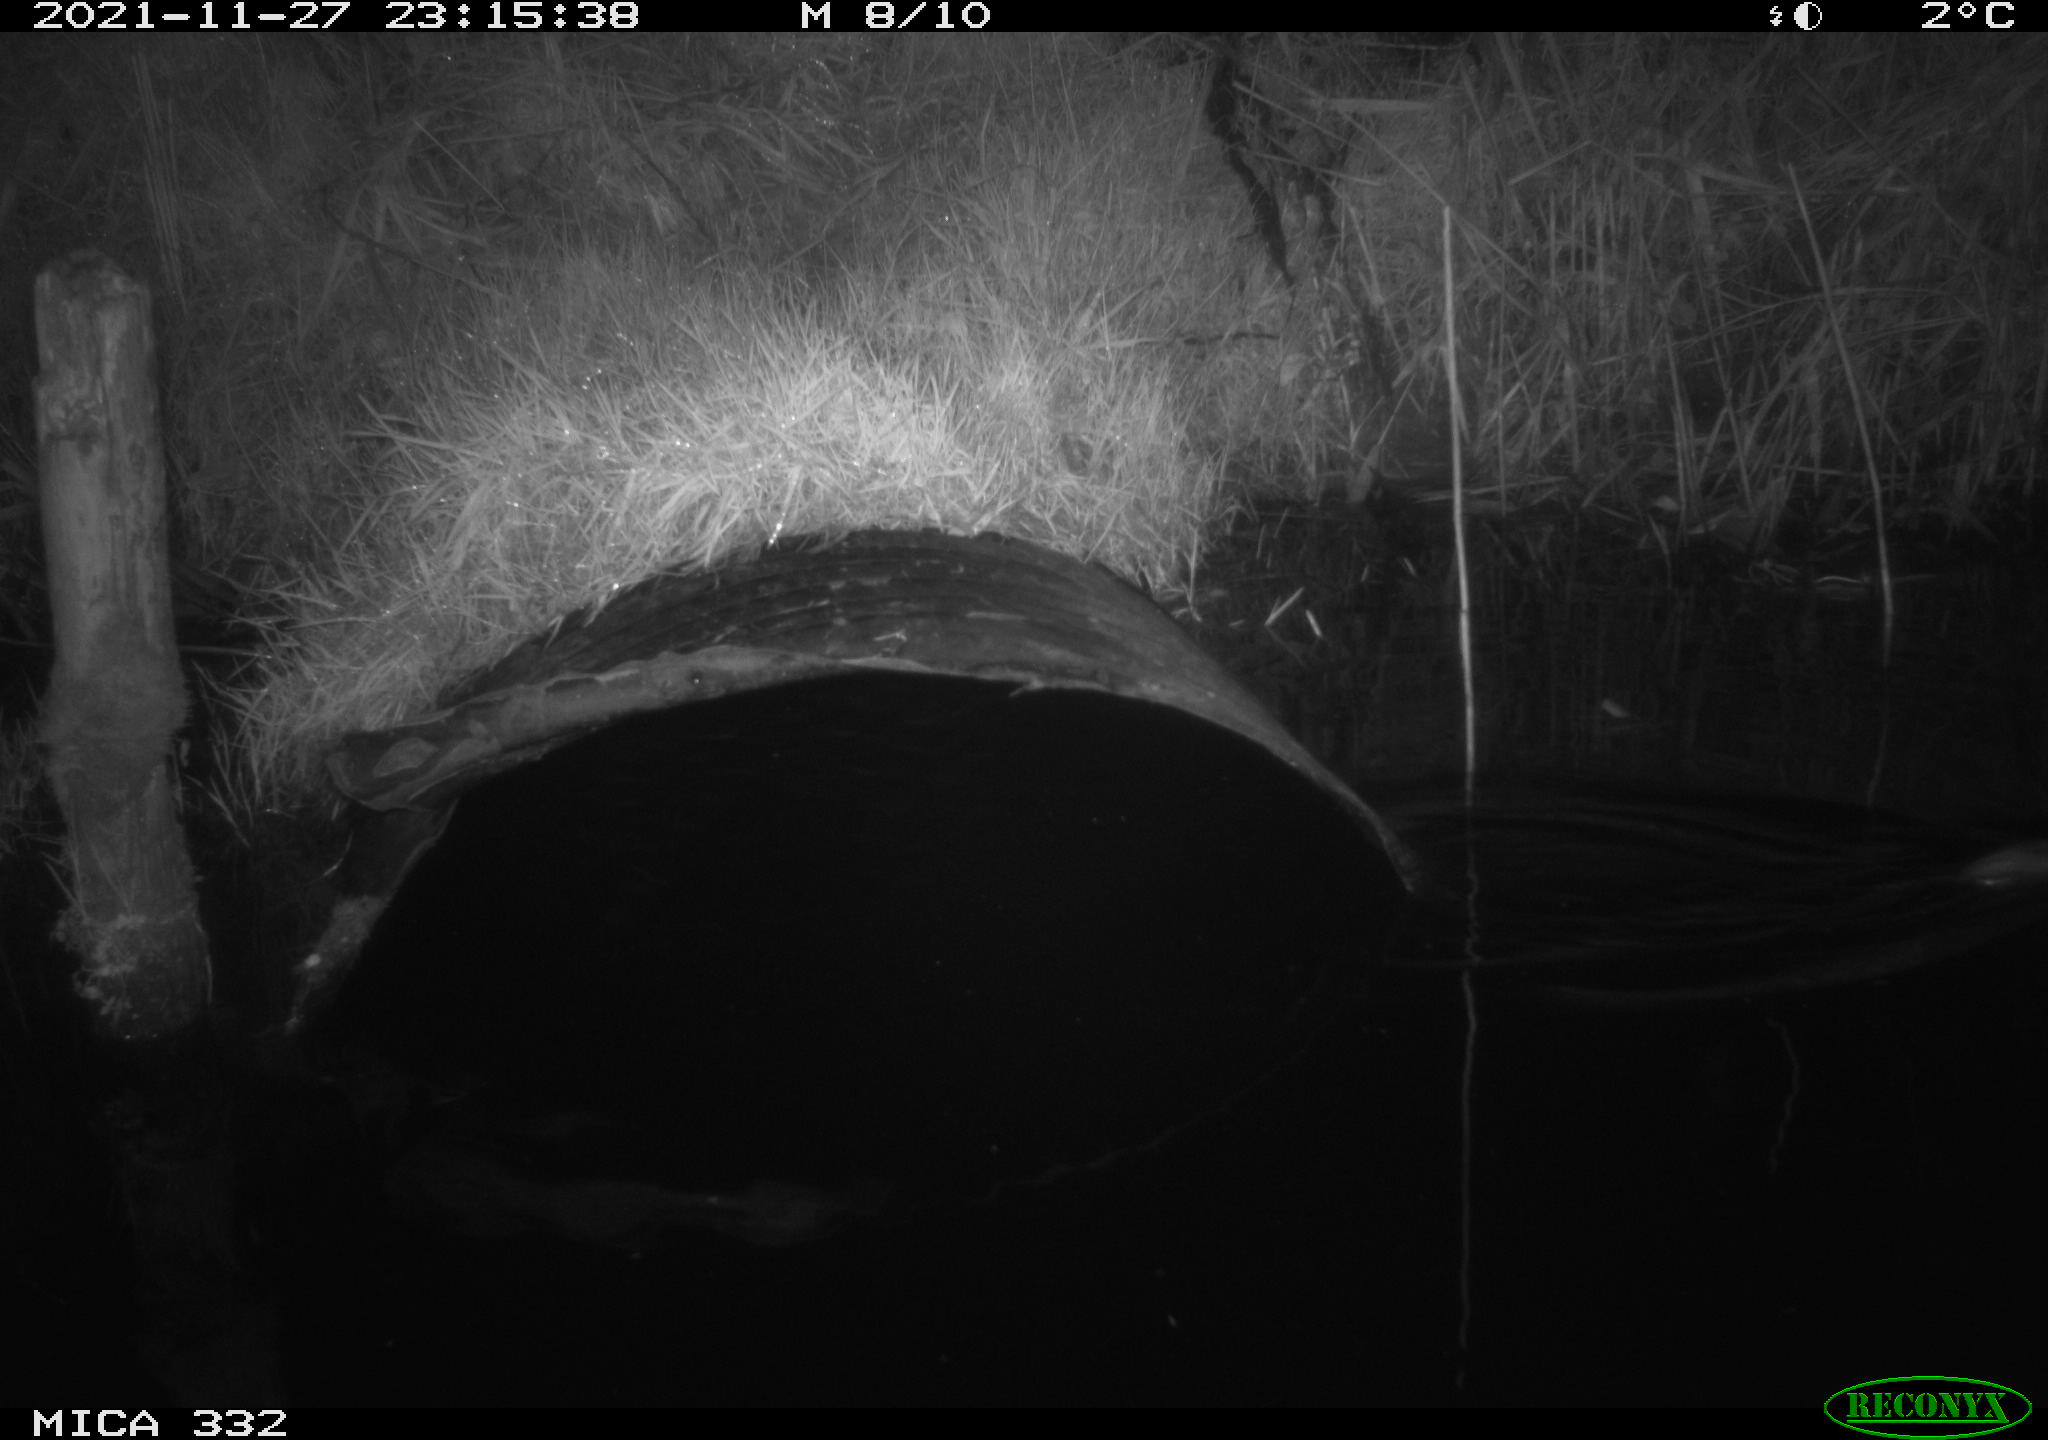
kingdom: Animalia
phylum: Chordata
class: Mammalia
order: Rodentia
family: Muridae
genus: Rattus
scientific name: Rattus norvegicus
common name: Brown rat
